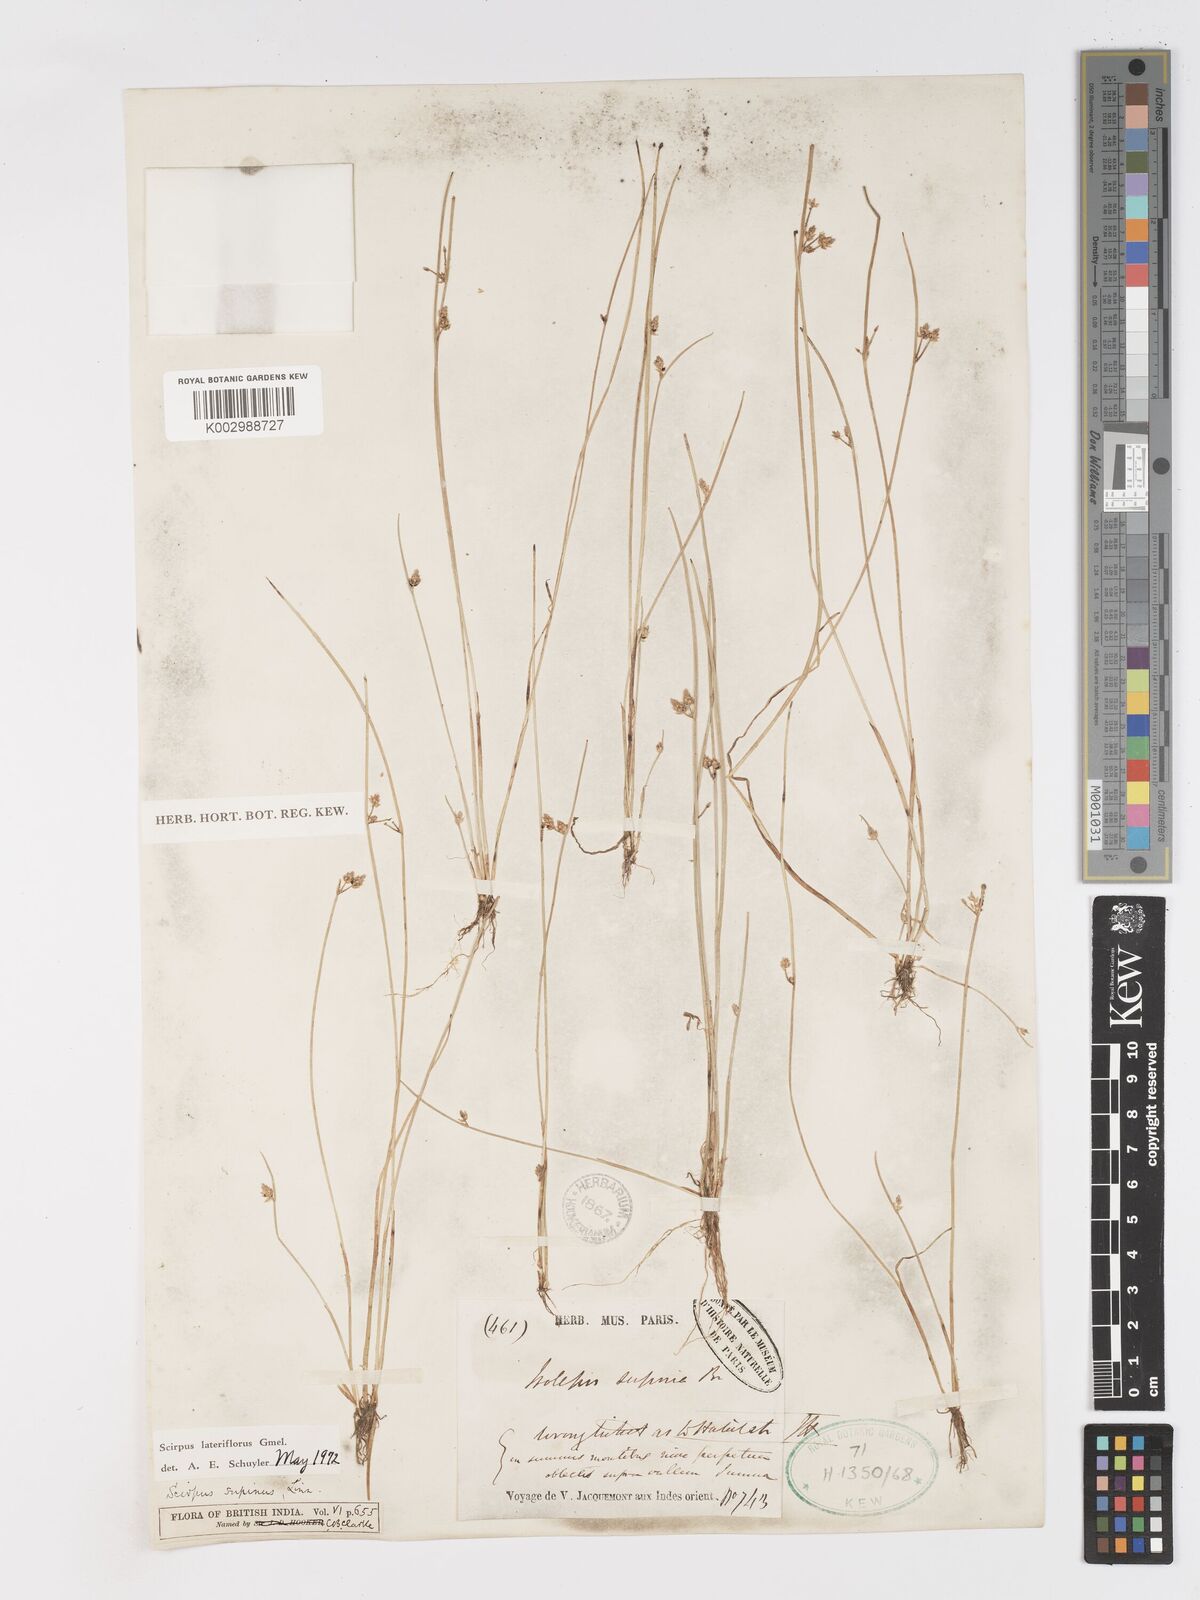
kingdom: Plantae
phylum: Tracheophyta
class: Liliopsida
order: Poales
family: Cyperaceae
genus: Schoenoplectiella
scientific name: Schoenoplectiella lateriflora
